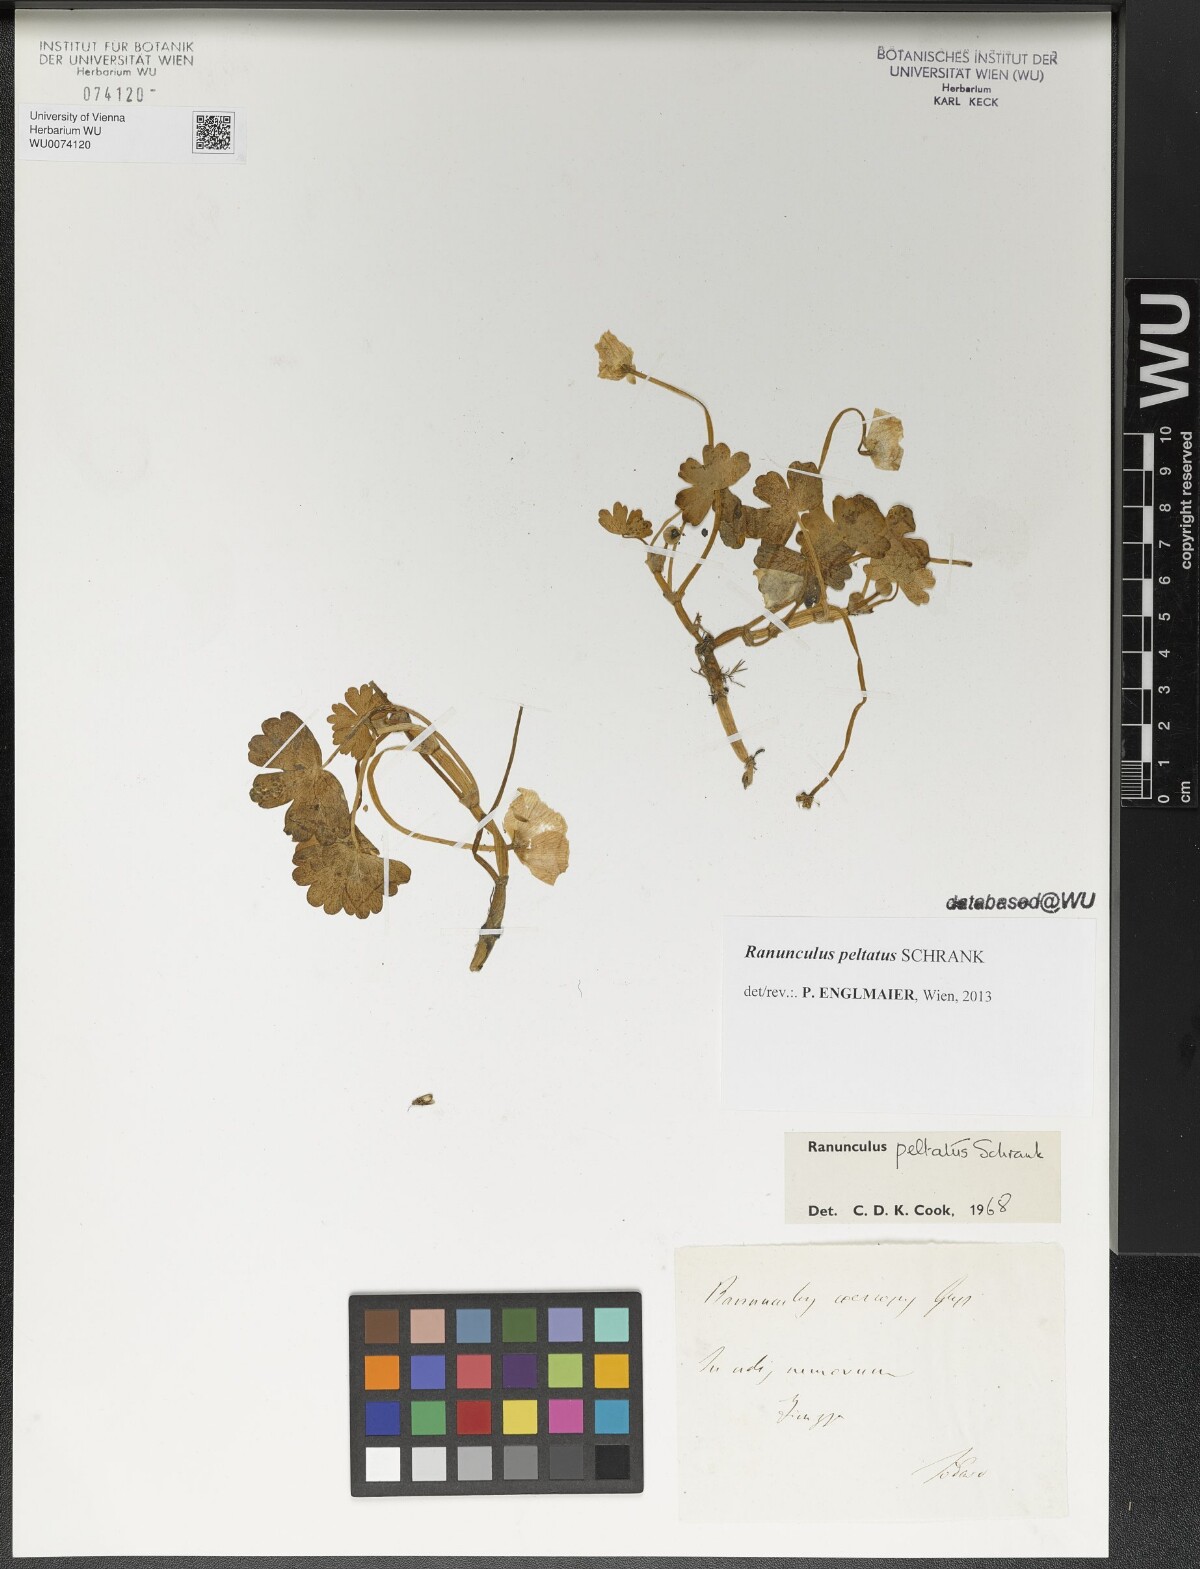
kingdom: Plantae
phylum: Tracheophyta
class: Magnoliopsida
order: Ranunculales
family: Ranunculaceae
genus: Ranunculus
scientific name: Ranunculus peltatus
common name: Pond water-crowfoot
